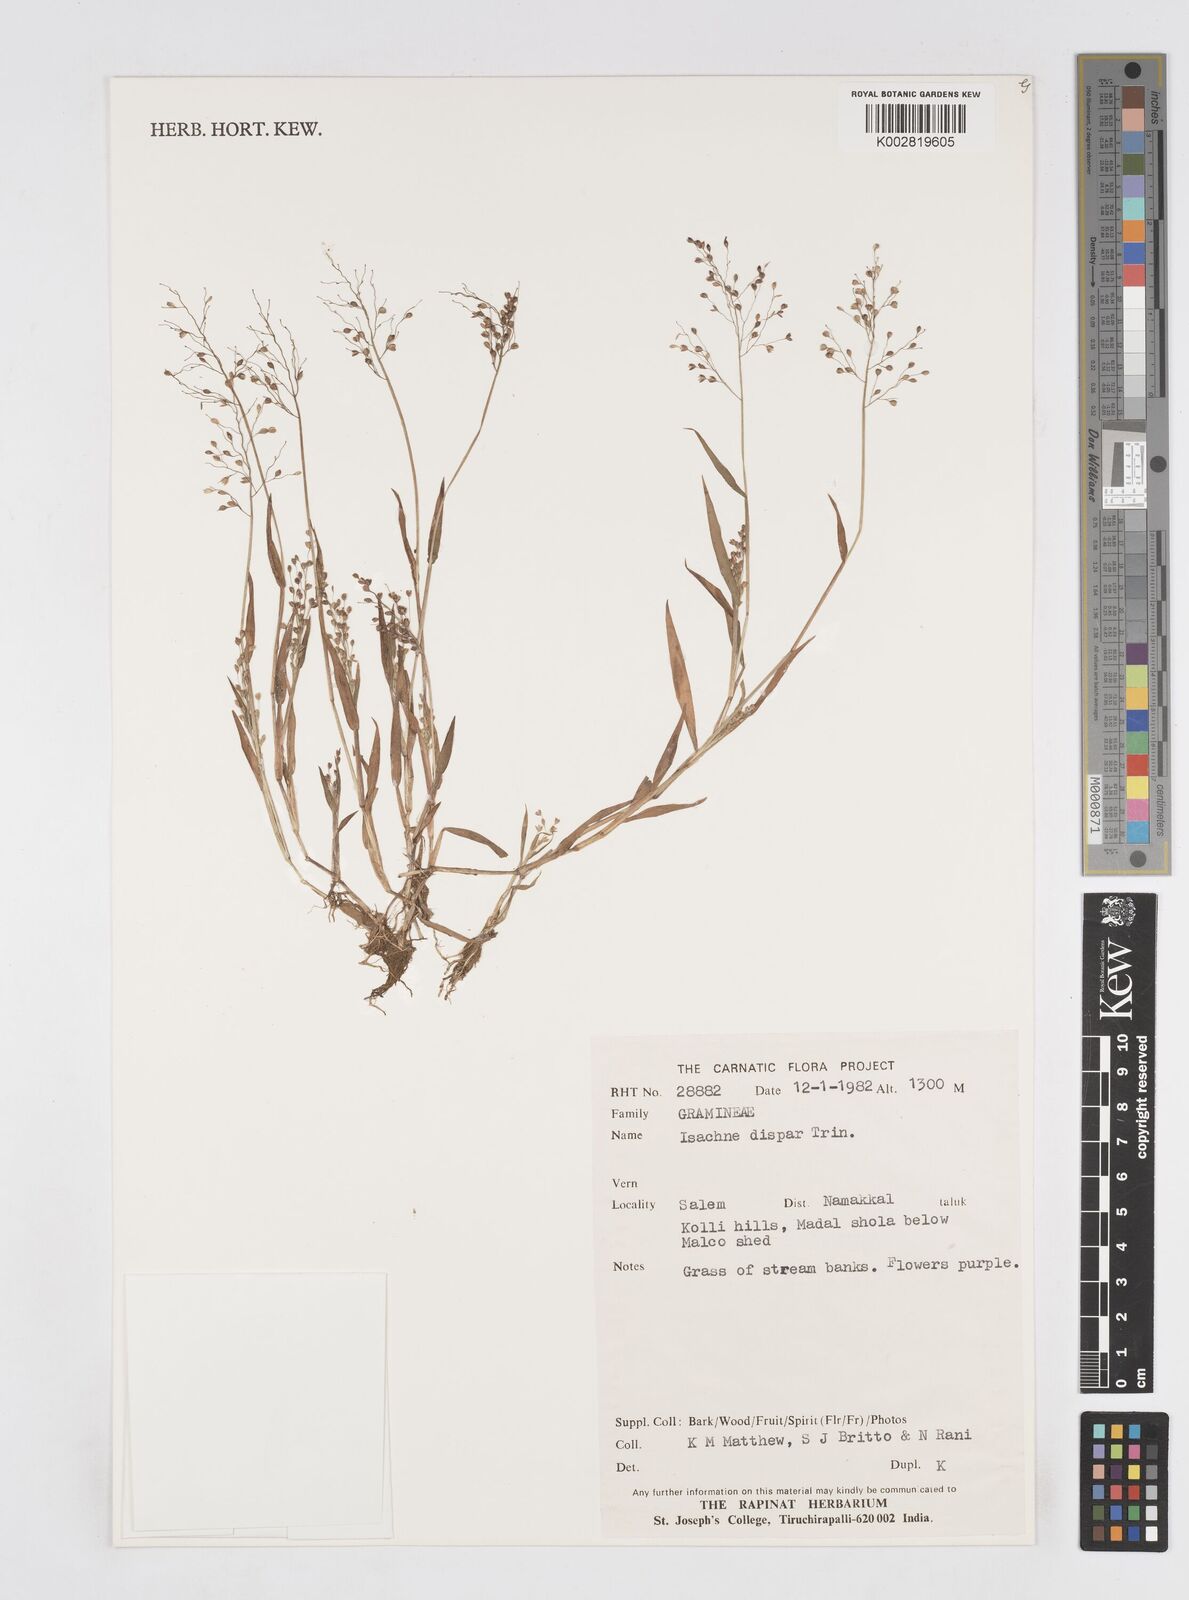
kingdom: Plantae
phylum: Tracheophyta
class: Liliopsida
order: Poales
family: Poaceae
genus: Isachne
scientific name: Isachne globosa
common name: Swamp millet
